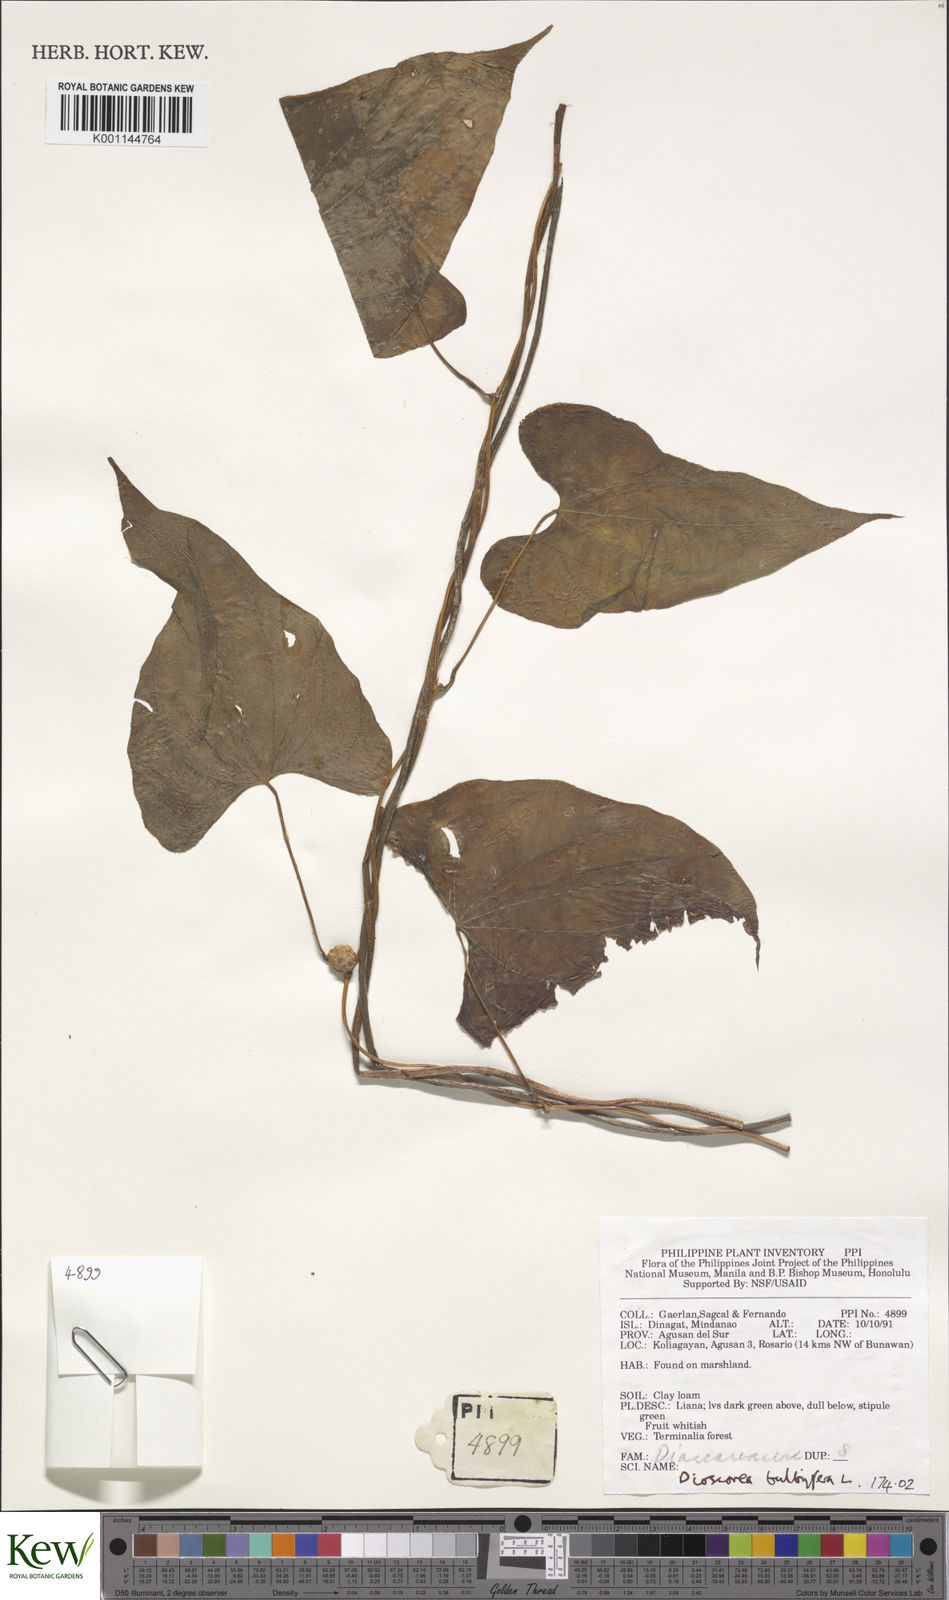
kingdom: Plantae
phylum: Tracheophyta
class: Liliopsida
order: Dioscoreales
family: Dioscoreaceae
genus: Dioscorea
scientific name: Dioscorea bulbifera
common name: Air yam
